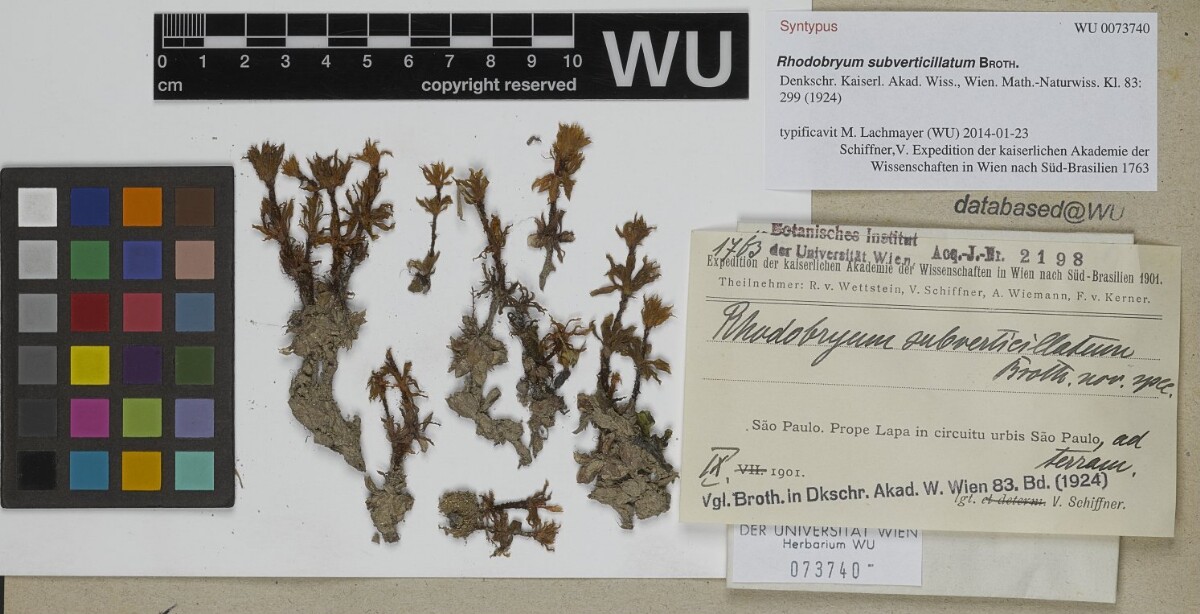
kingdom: Plantae
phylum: Bryophyta
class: Bryopsida
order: Bryales
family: Bryaceae
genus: Rhodobryum
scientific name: Rhodobryum subverticillatum
